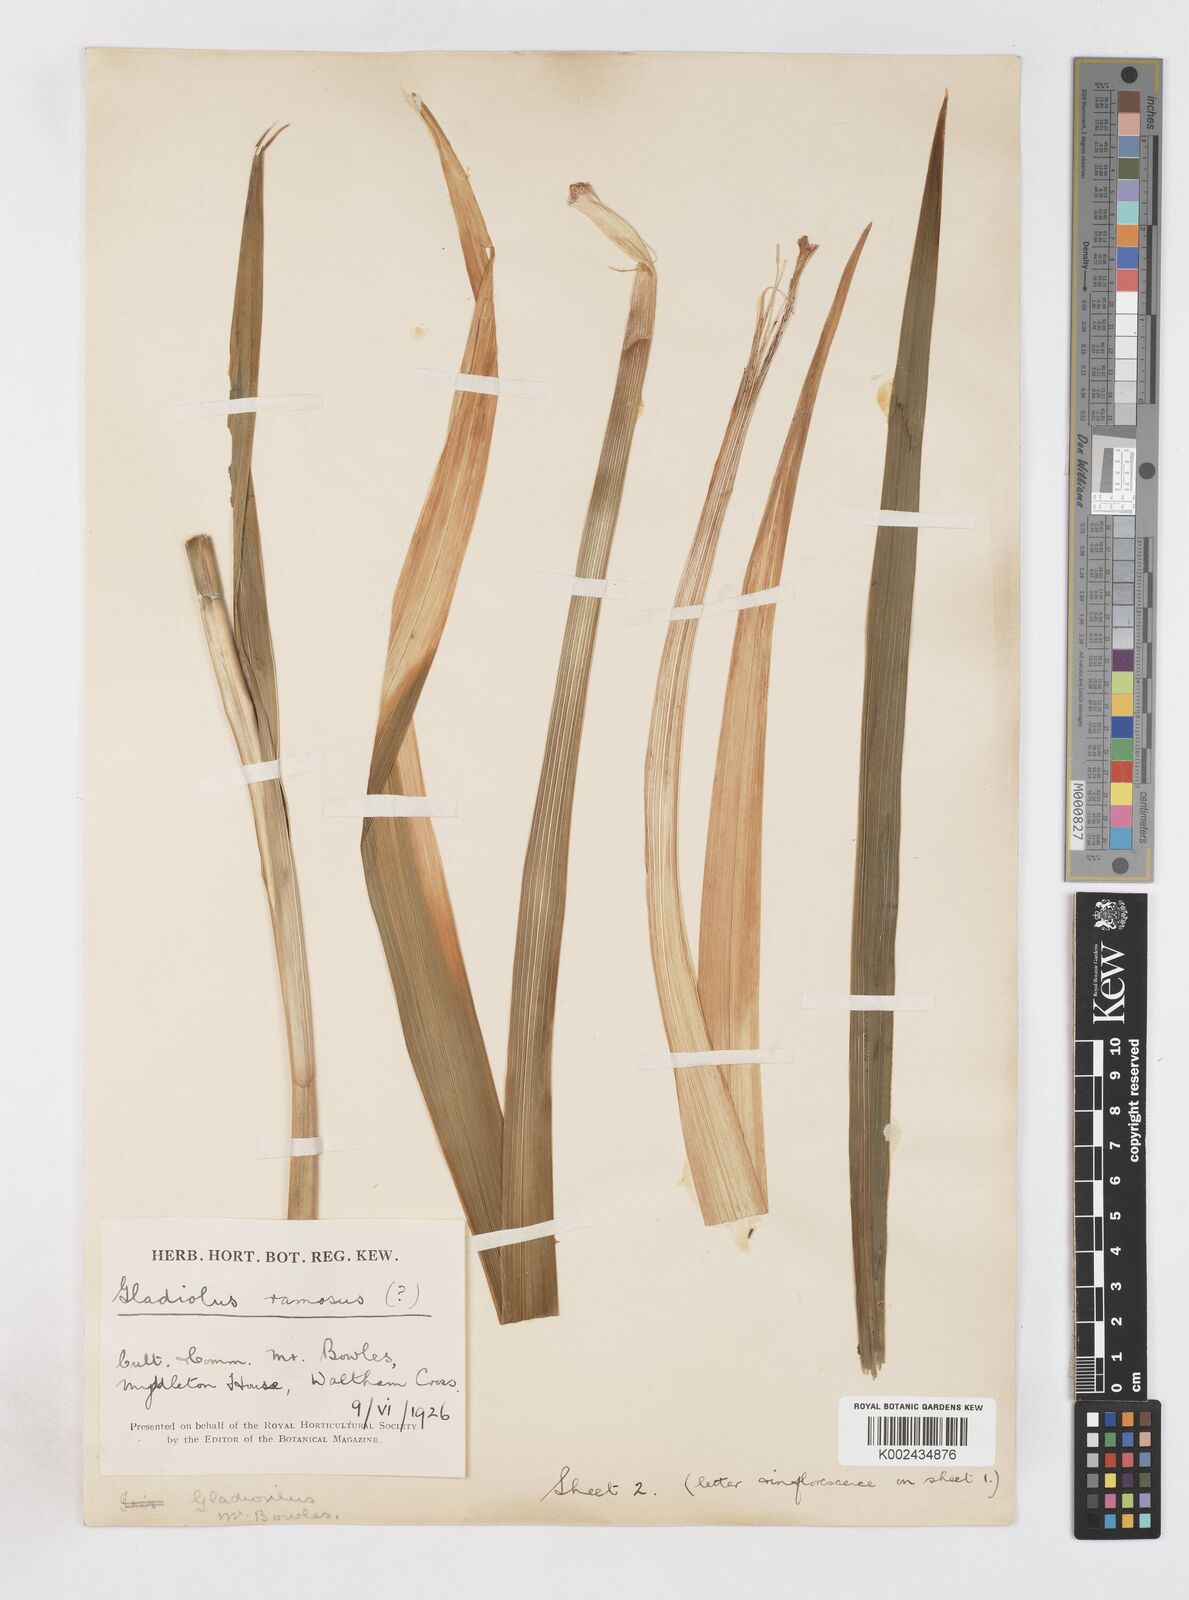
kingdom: Plantae
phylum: Tracheophyta
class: Liliopsida
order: Asparagales
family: Iridaceae
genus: Gladiolus
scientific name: Gladiolus cardinalis
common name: New year-lily
